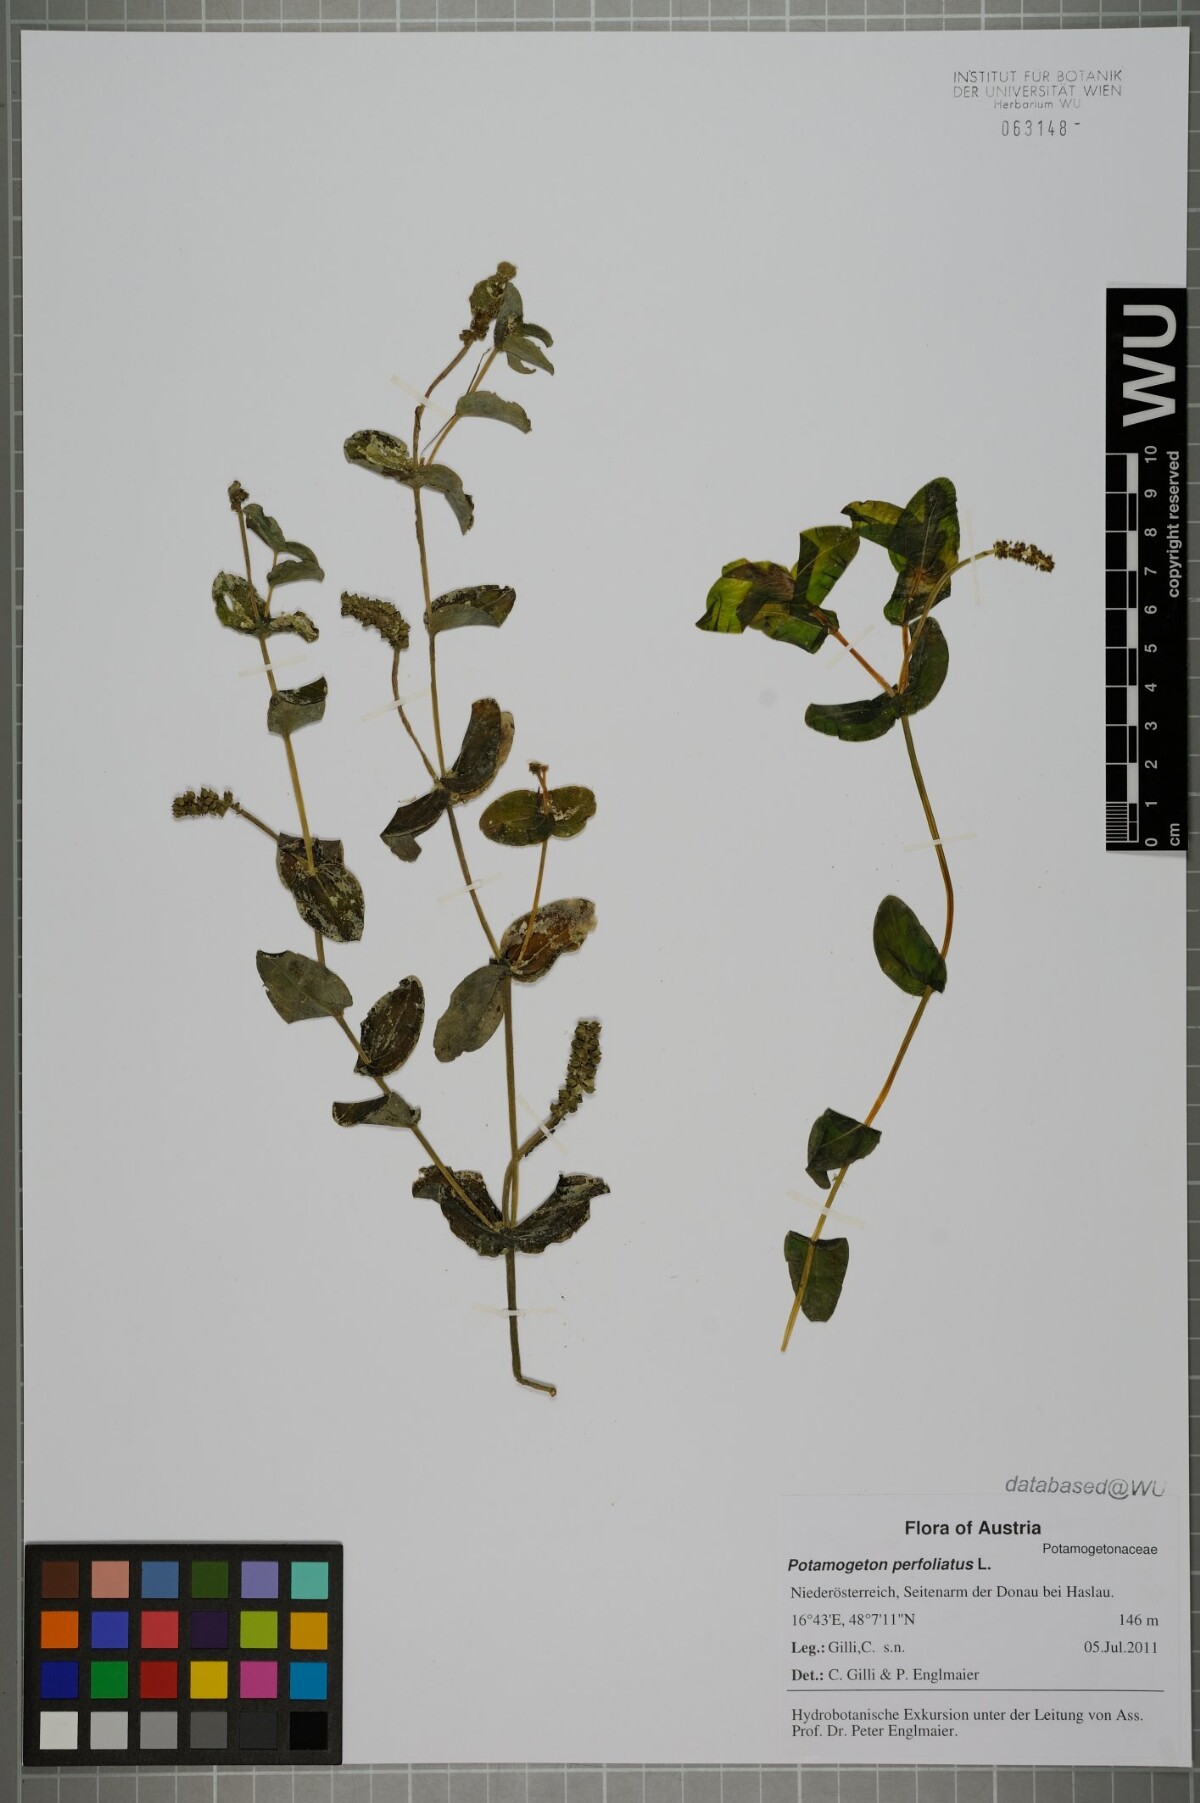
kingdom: Plantae
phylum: Tracheophyta
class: Liliopsida
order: Alismatales
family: Potamogetonaceae
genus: Potamogeton
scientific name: Potamogeton perfoliatus
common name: Perfoliate pondweed
